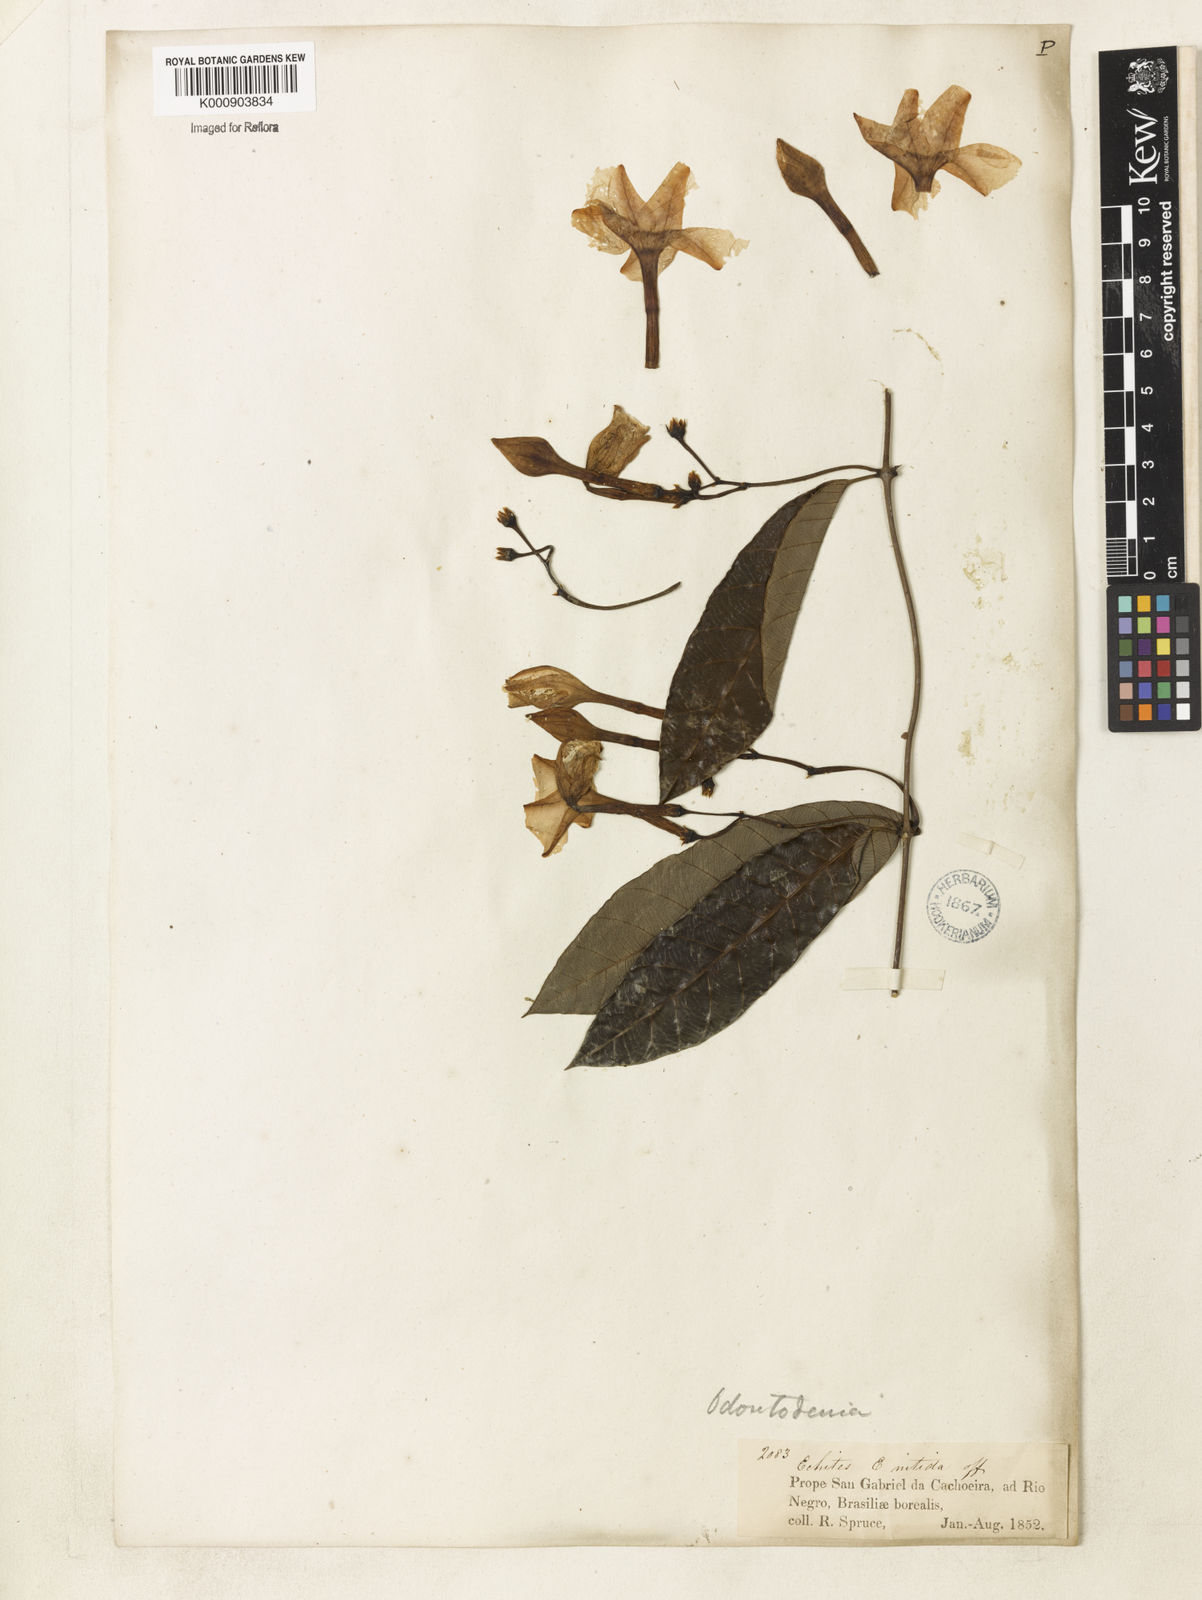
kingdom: Plantae
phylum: Tracheophyta
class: Magnoliopsida
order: Gentianales
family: Apocynaceae
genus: Odontadenia
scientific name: Odontadenia
